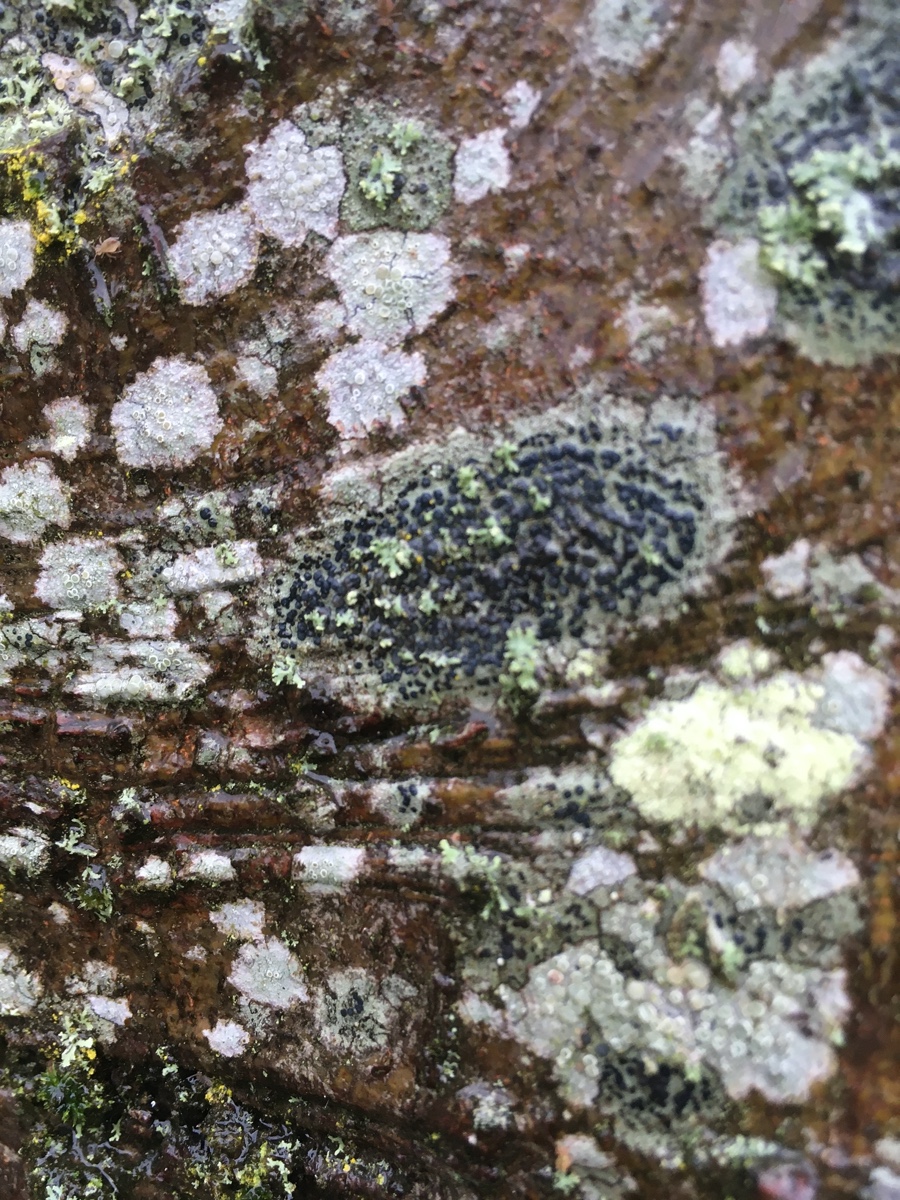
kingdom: Fungi
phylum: Ascomycota
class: Lecanoromycetes
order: Lecanorales
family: Lecanoraceae
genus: Lecidella
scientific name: Lecidella elaeochroma
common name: grågrøn skivelav
